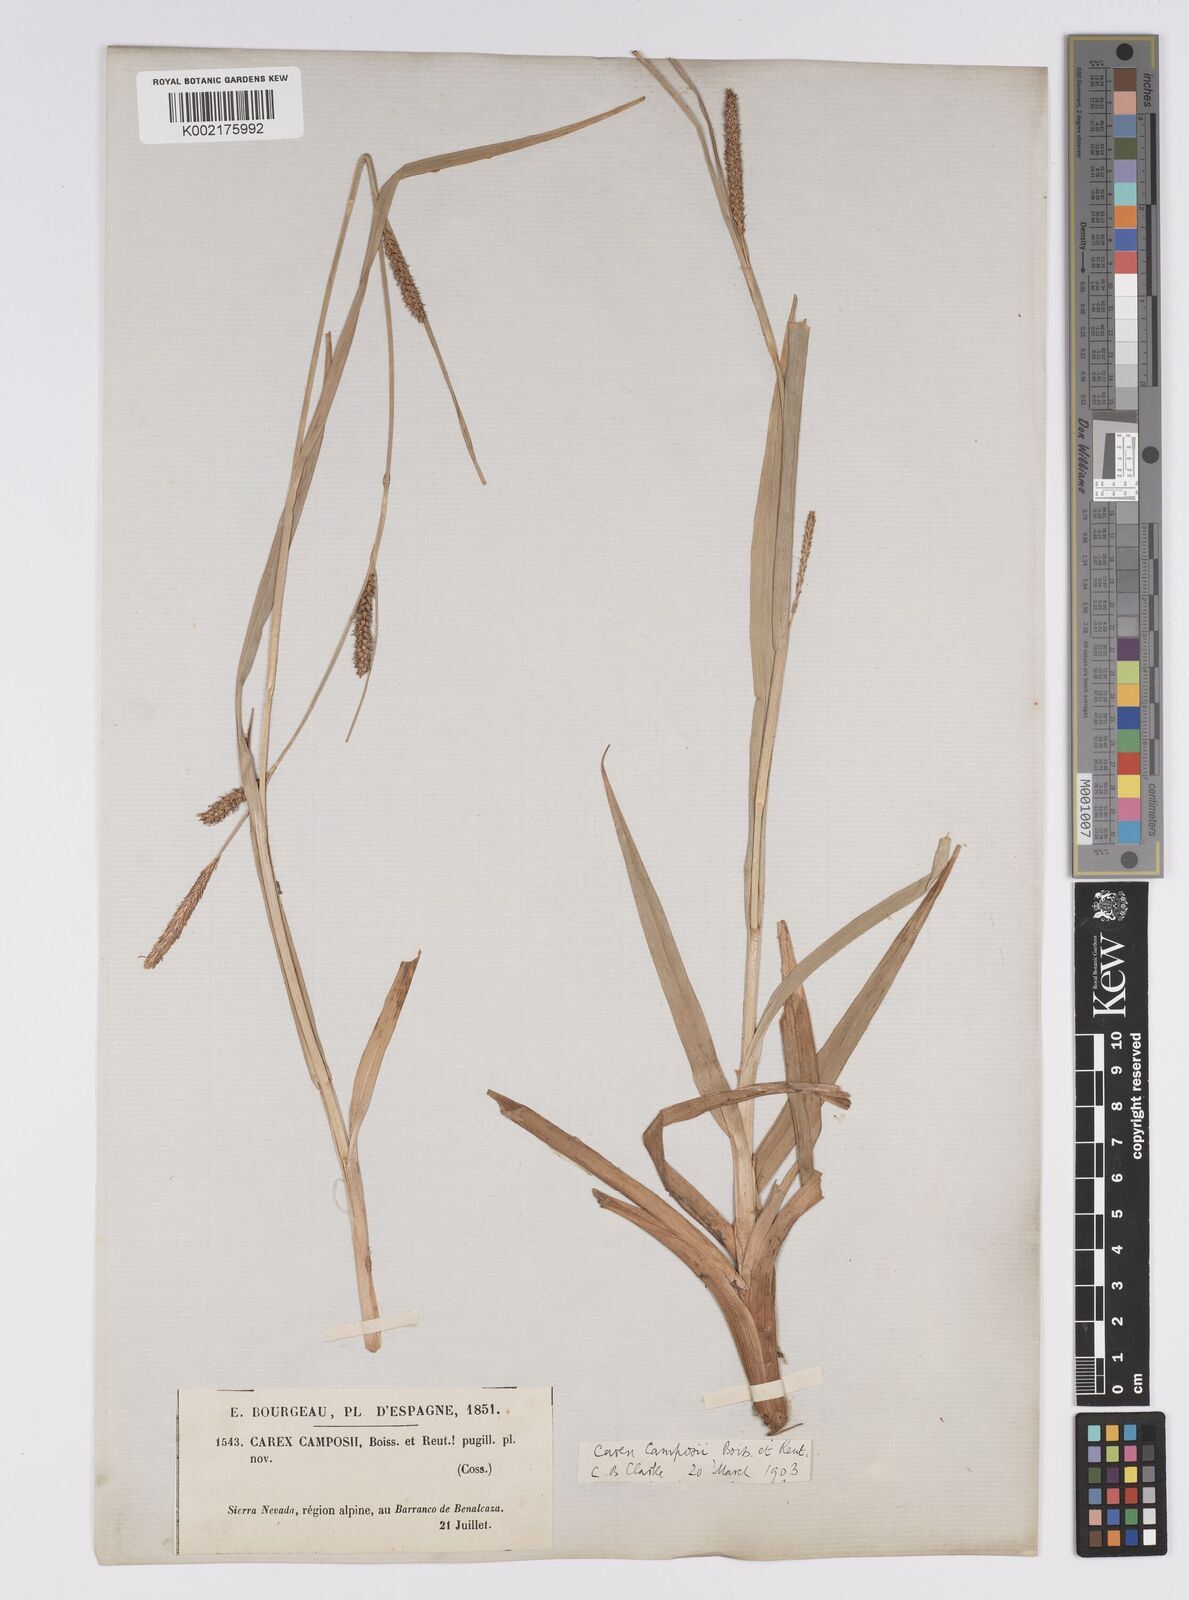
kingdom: Plantae
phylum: Tracheophyta
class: Liliopsida
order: Poales
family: Cyperaceae
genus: Carex
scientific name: Carex camposii
